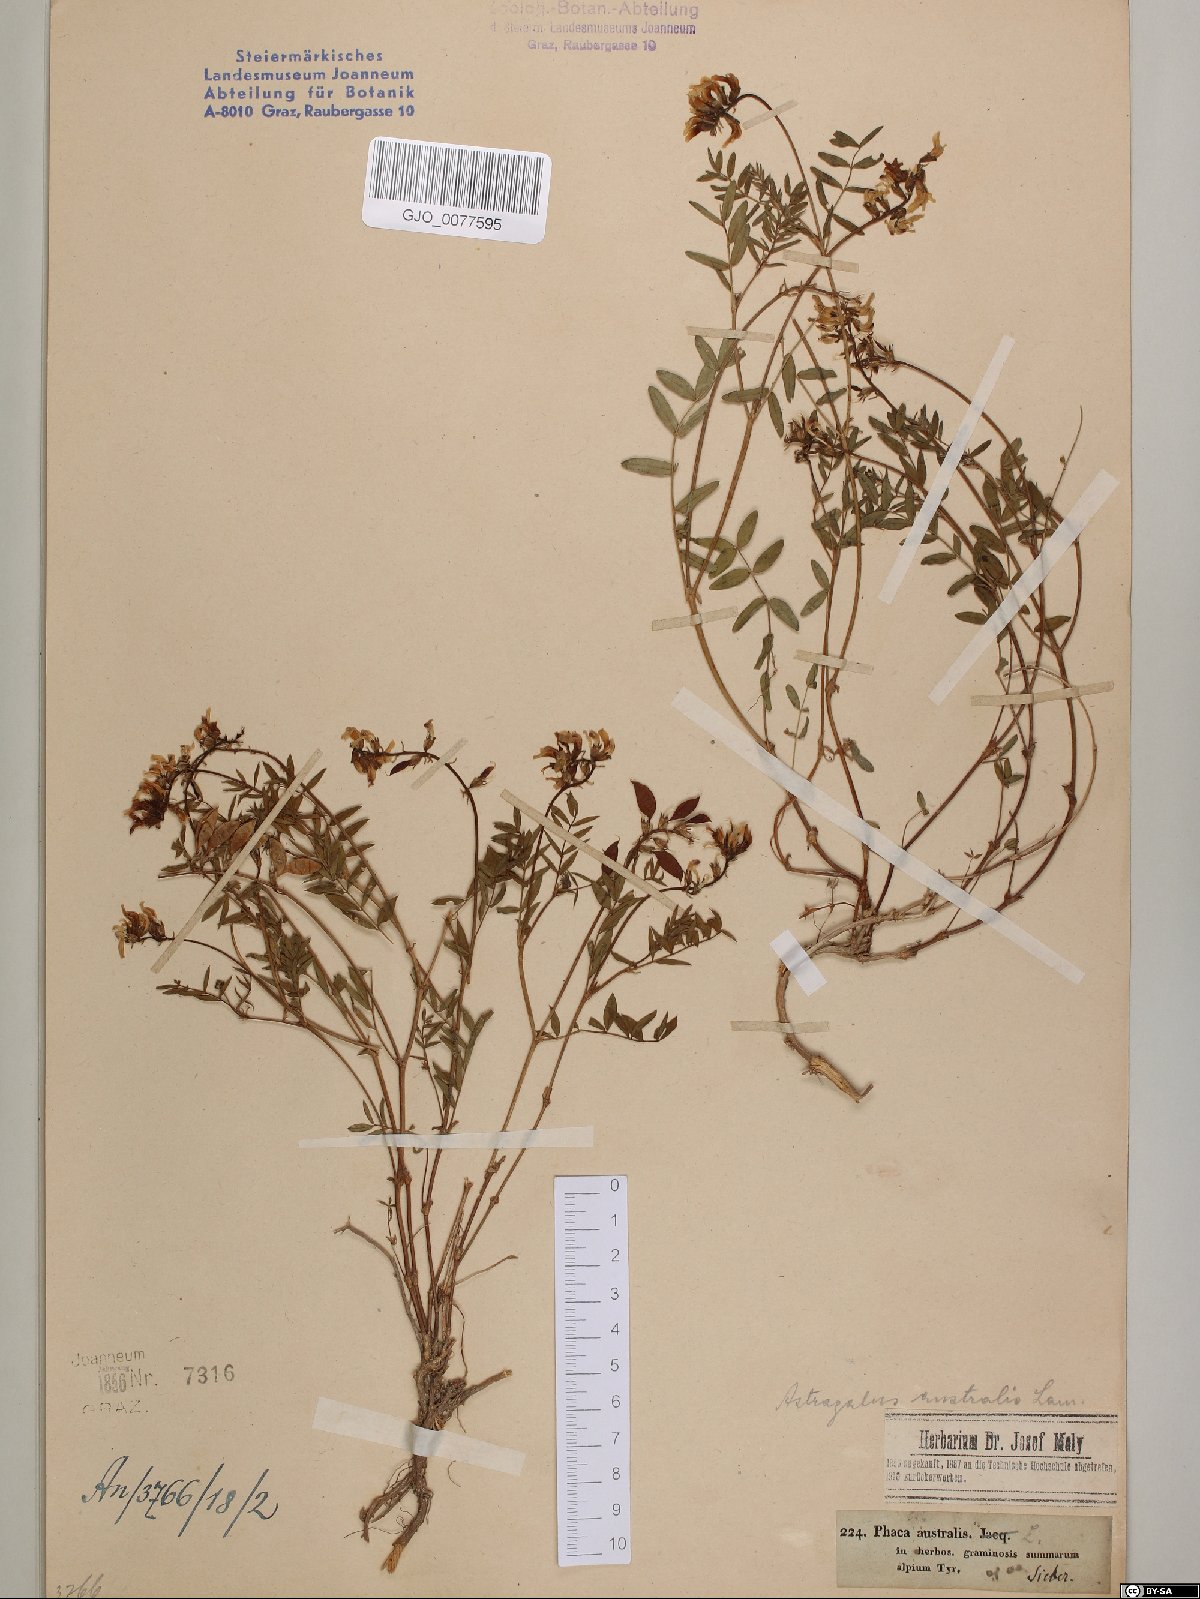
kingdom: Plantae
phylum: Tracheophyta
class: Magnoliopsida
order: Fabales
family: Fabaceae
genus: Astragalus
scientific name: Astragalus australis
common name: Indian milk-vetch
